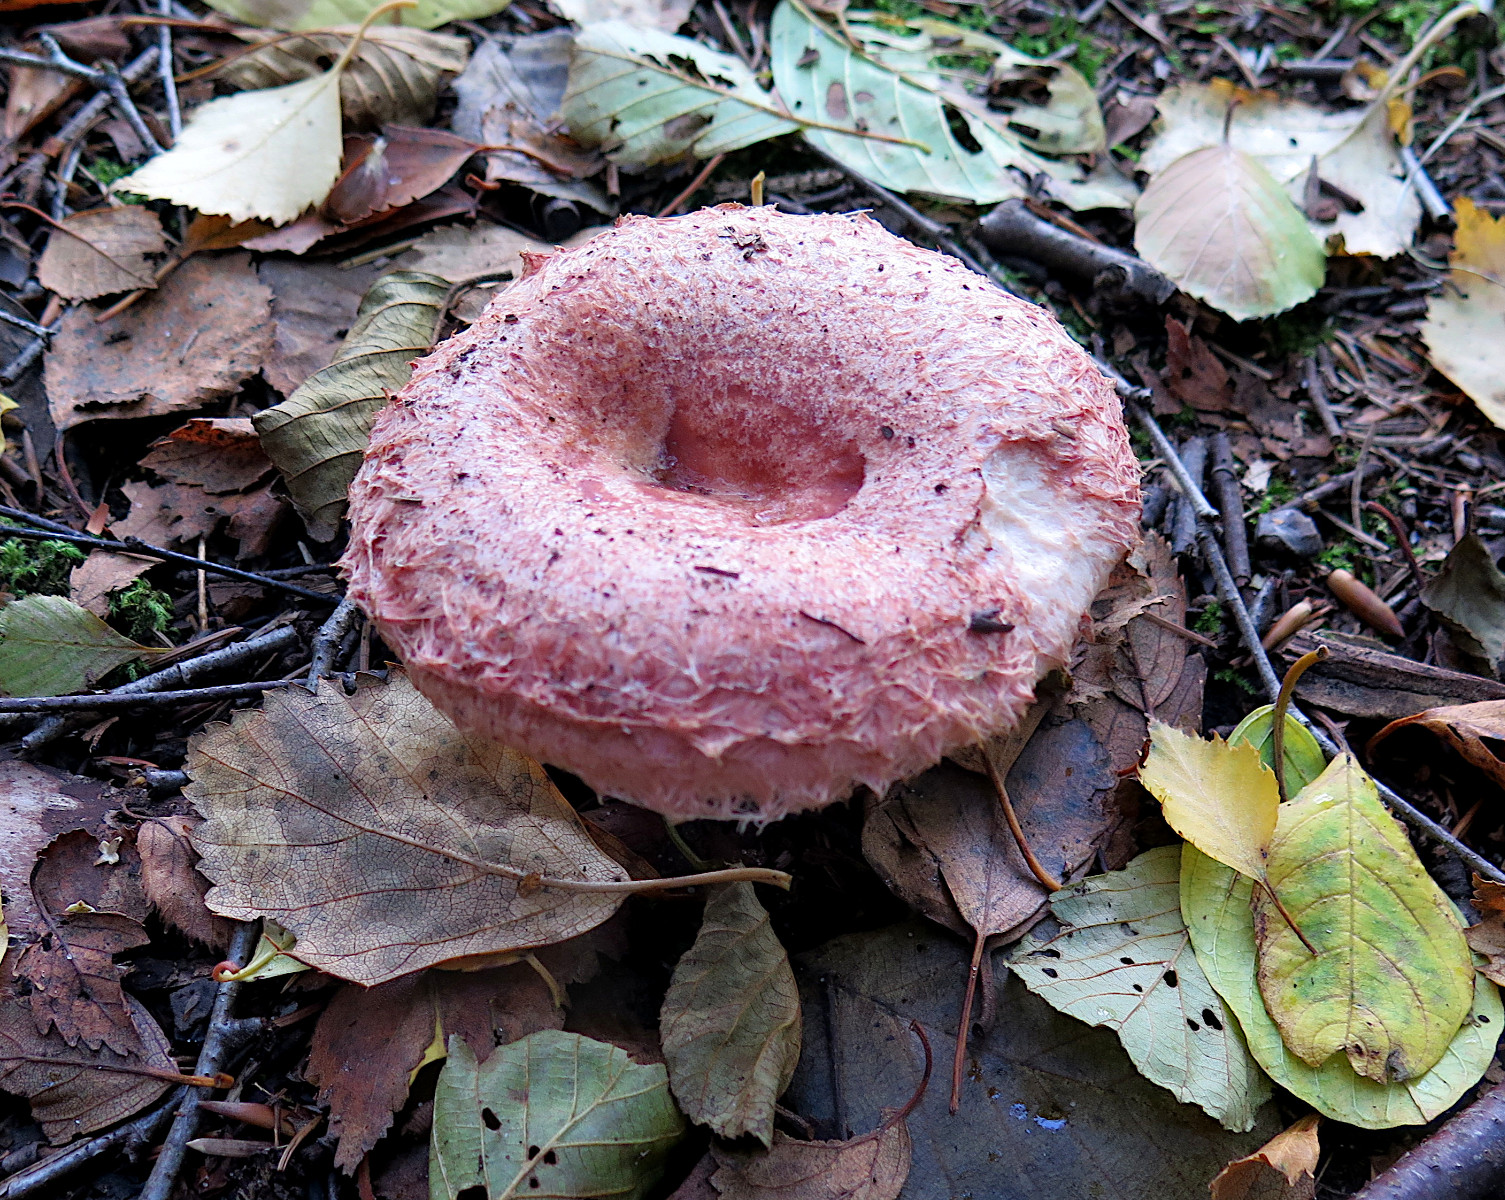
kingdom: Fungi
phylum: Basidiomycota
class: Agaricomycetes
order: Russulales
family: Russulaceae
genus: Lactarius
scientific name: Lactarius torminosus
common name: skægget mælkehat
